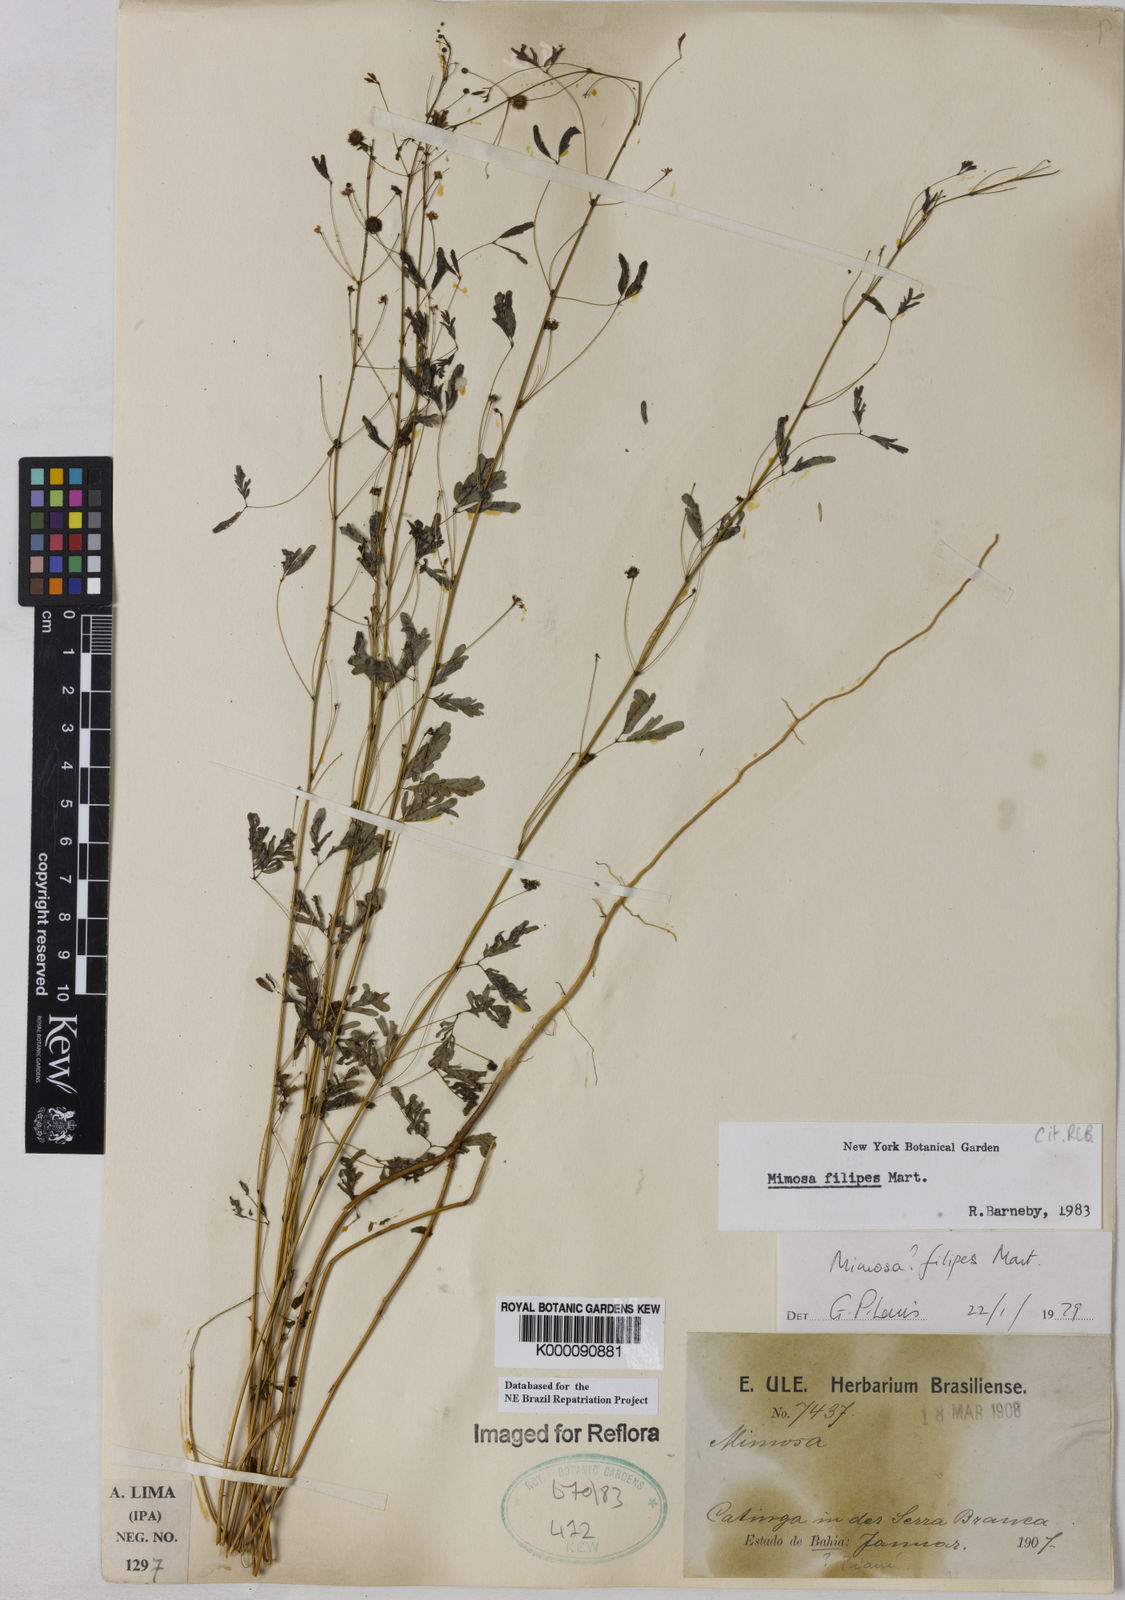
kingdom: Plantae
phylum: Tracheophyta
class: Magnoliopsida
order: Fabales
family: Fabaceae
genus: Mimosa
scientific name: Mimosa filipes
